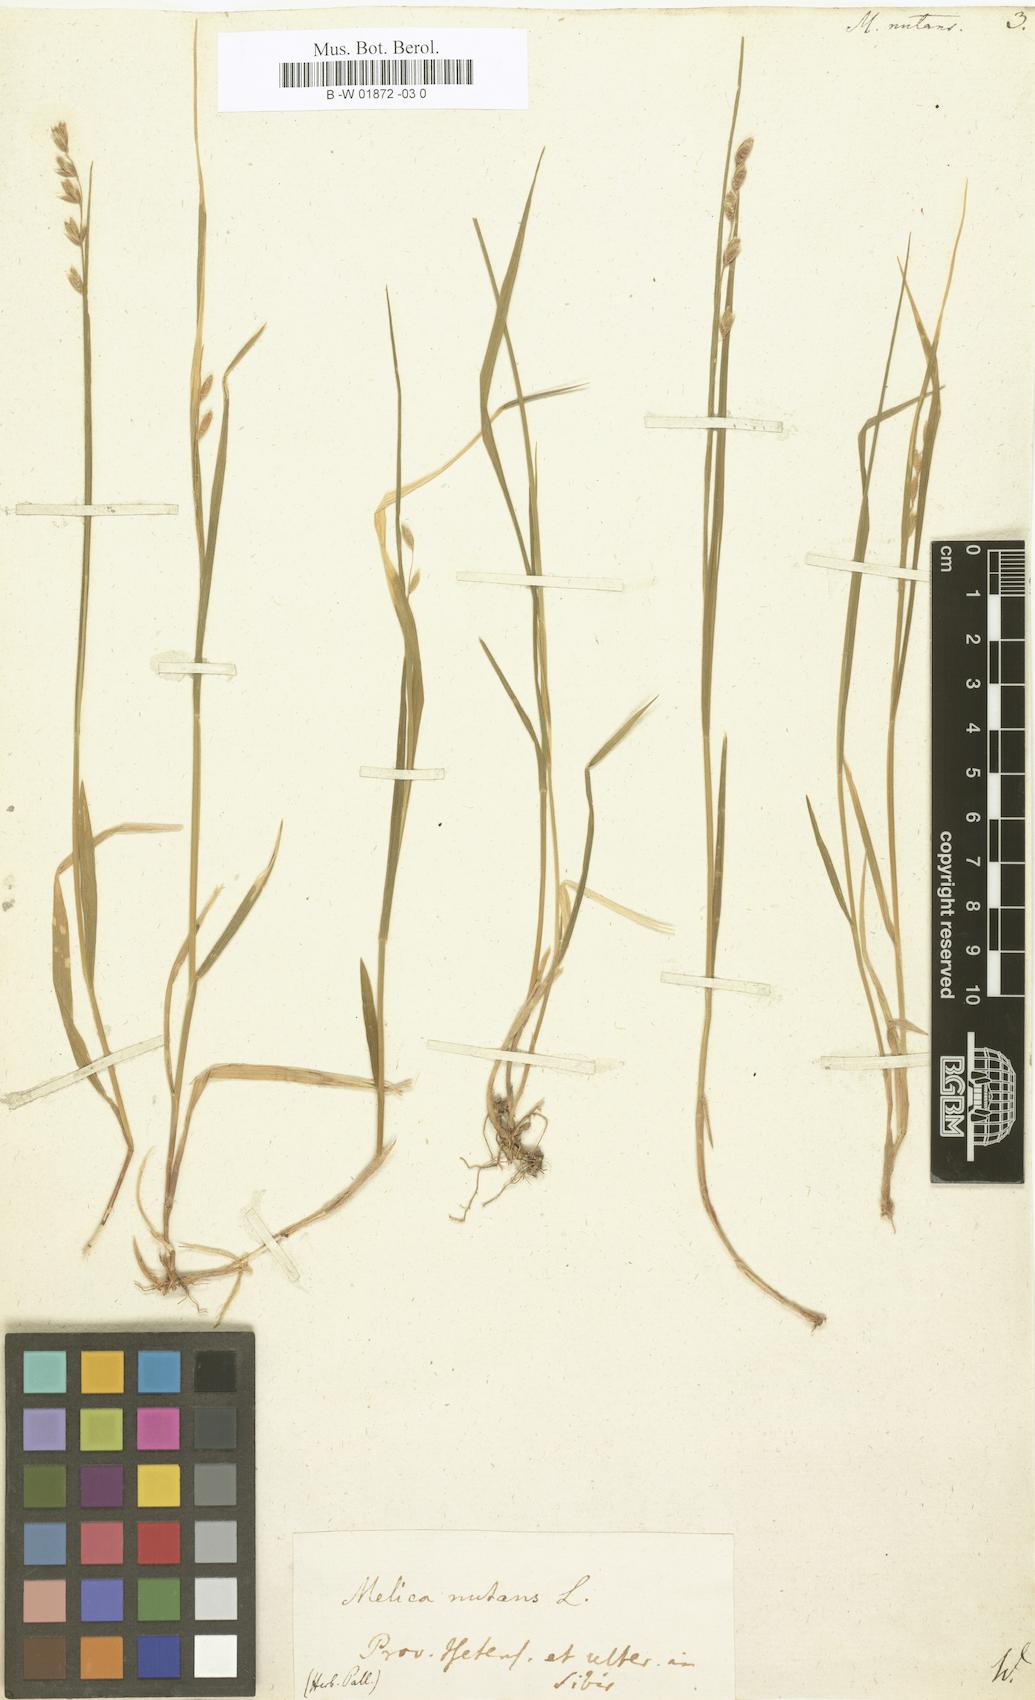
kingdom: Plantae
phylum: Tracheophyta
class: Liliopsida
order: Poales
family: Poaceae
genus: Melica
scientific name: Melica nutans
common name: Mountain melick
